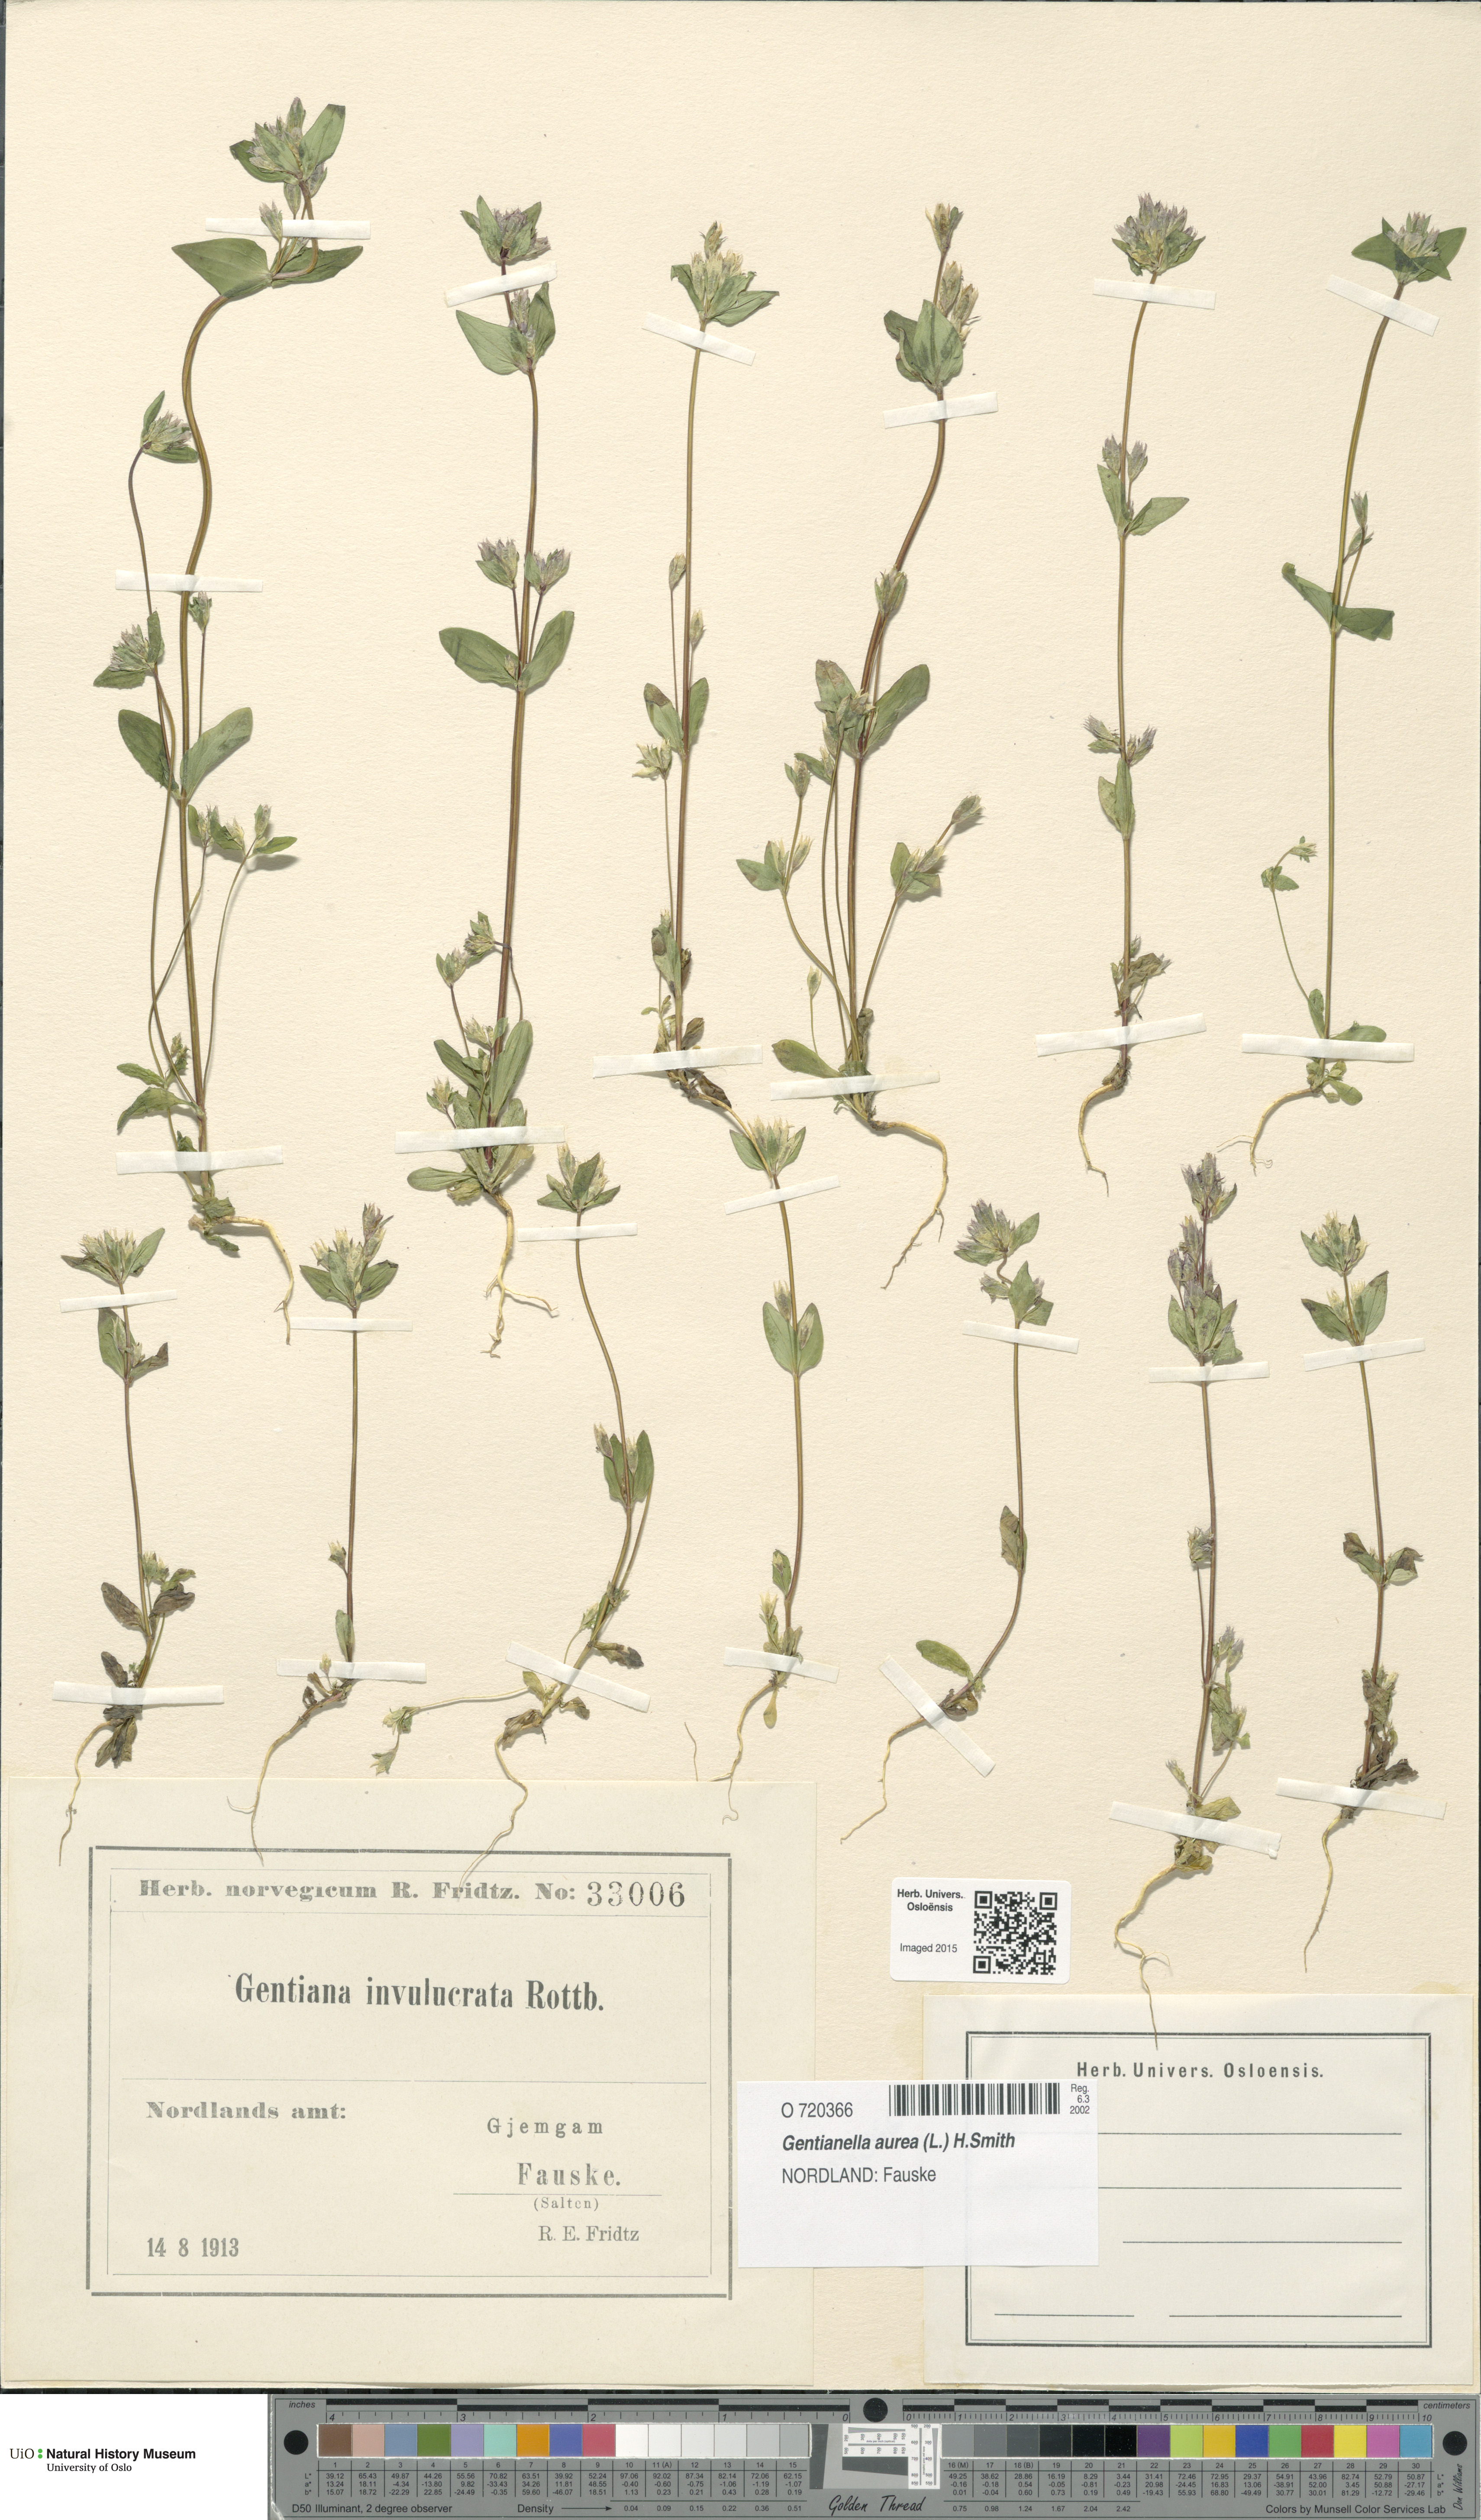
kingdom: Plantae
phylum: Tracheophyta
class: Magnoliopsida
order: Gentianales
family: Gentianaceae
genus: Gentianella
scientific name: Gentianella aurea
